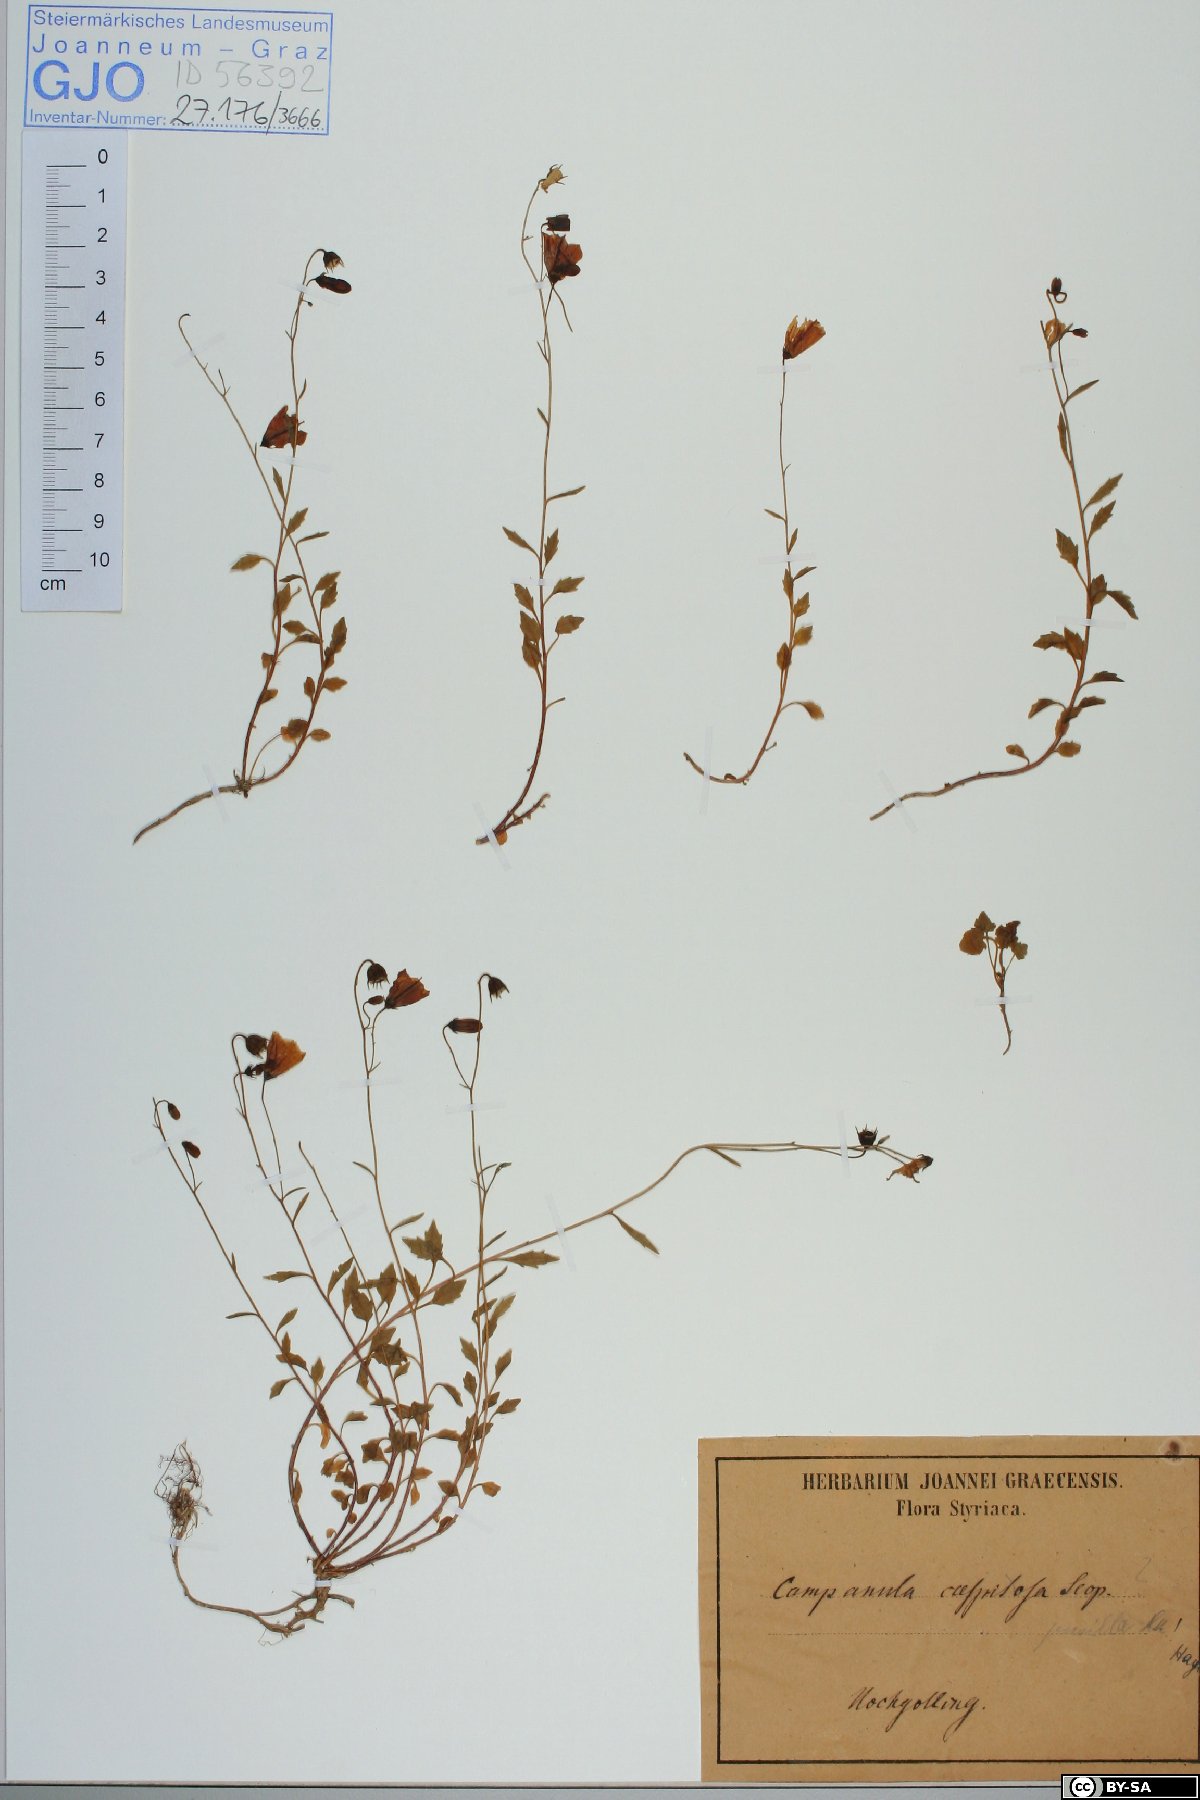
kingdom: Plantae
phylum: Tracheophyta
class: Magnoliopsida
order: Asterales
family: Campanulaceae
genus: Campanula
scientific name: Campanula cochleariifolia
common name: Fairies'-thimbles
